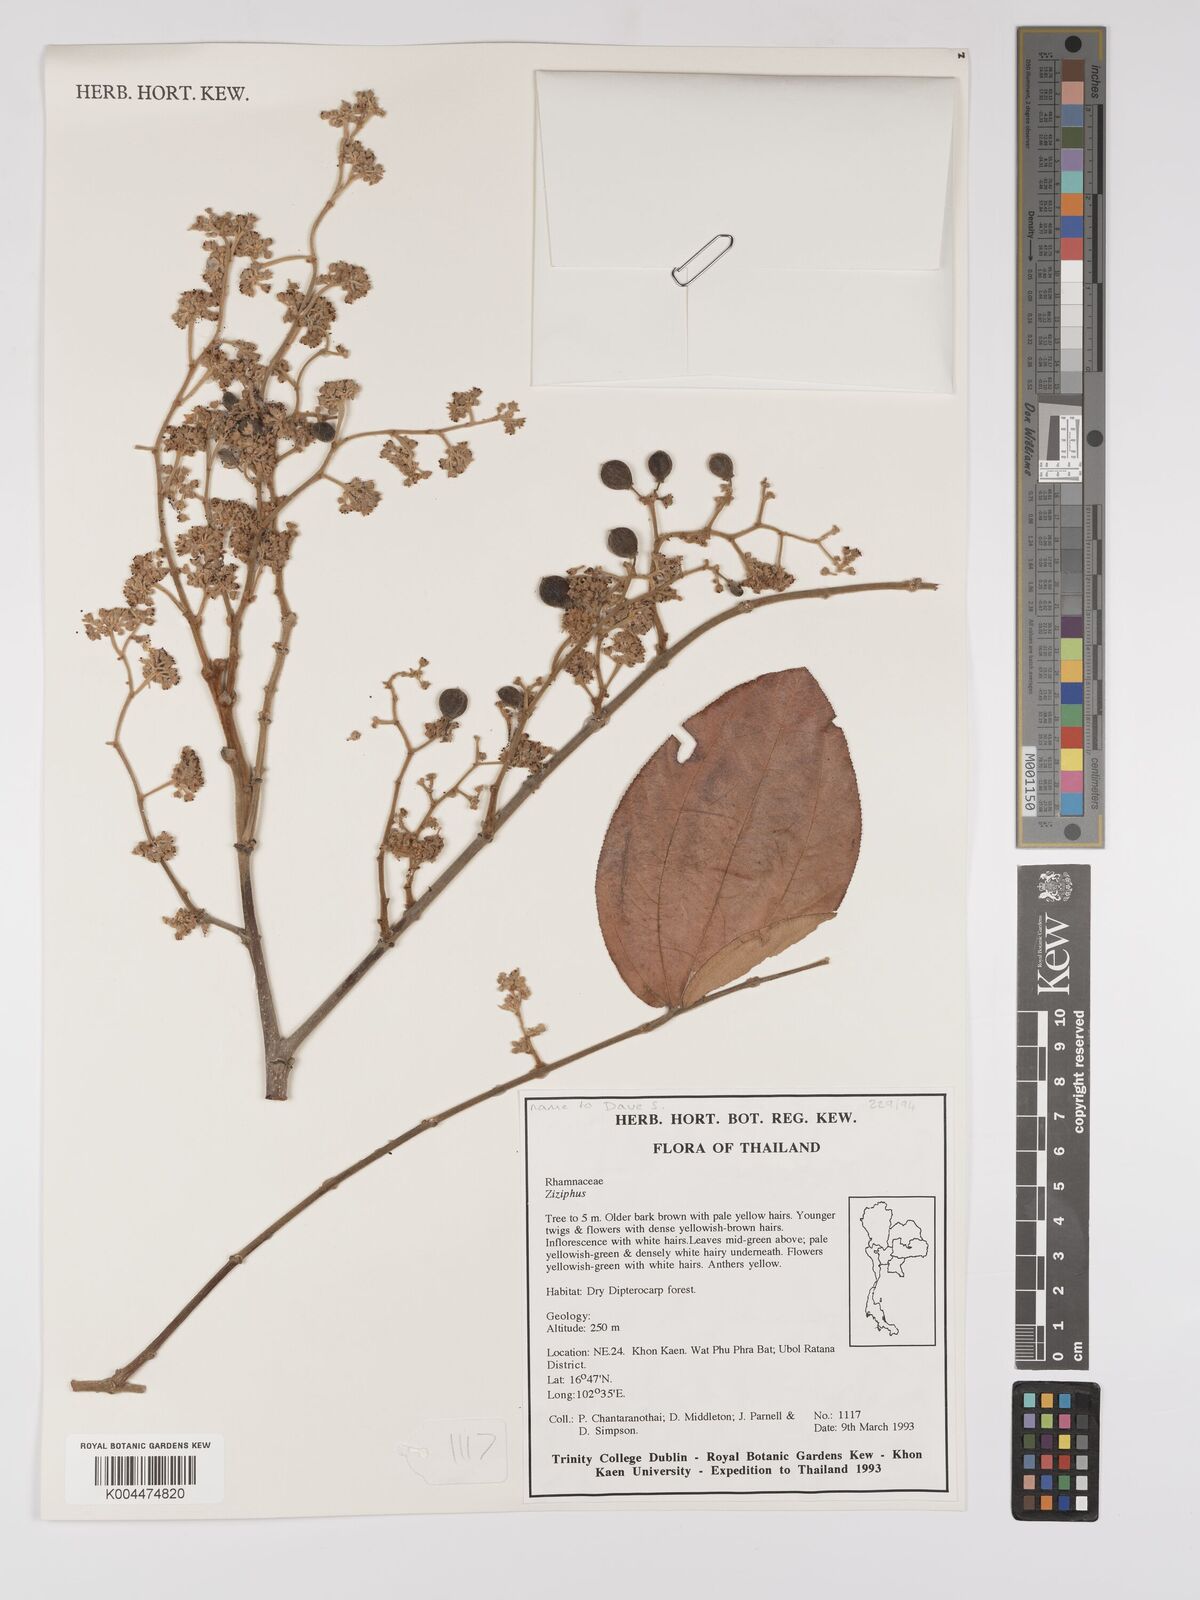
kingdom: Plantae
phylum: Tracheophyta
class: Magnoliopsida
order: Rosales
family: Rhamnaceae
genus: Ziziphus
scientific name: Ziziphus rugosa
